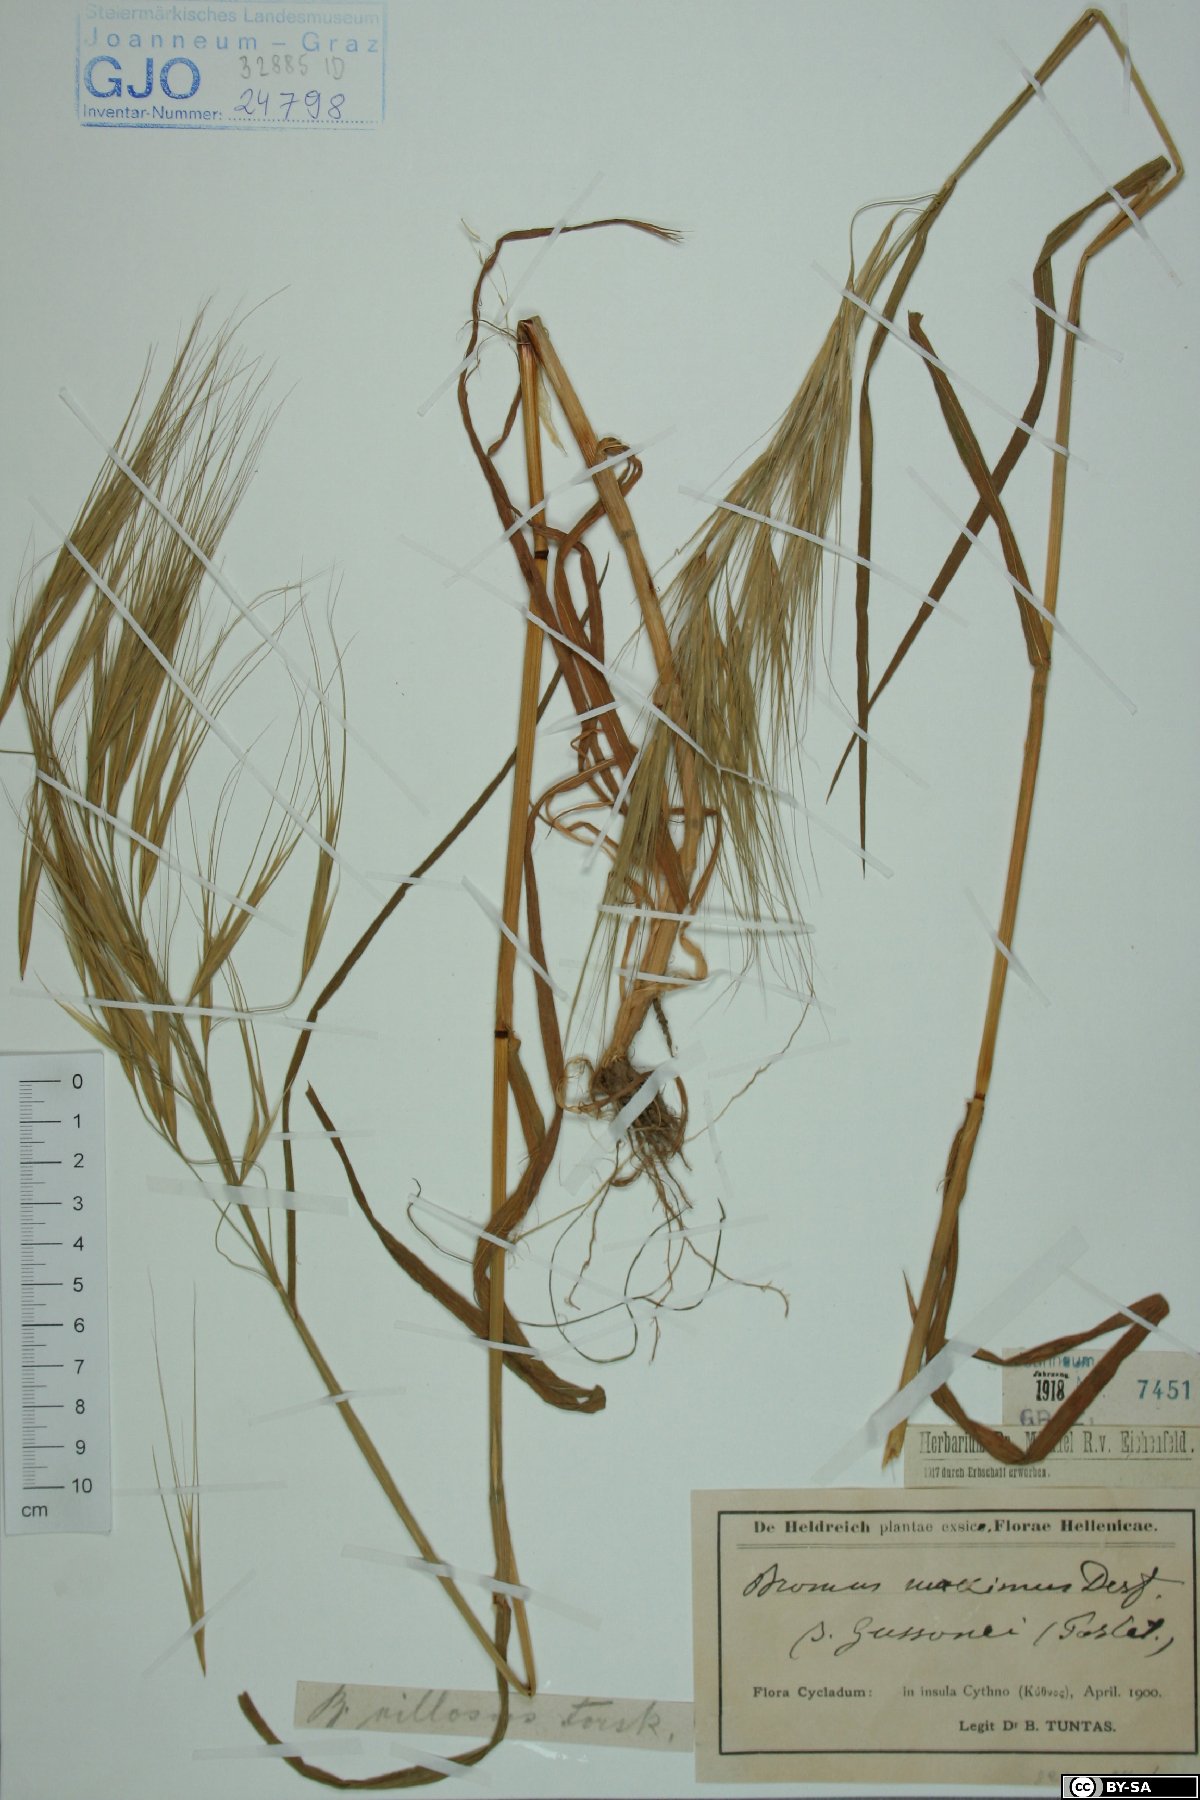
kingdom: Plantae
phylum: Tracheophyta
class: Liliopsida
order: Poales
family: Poaceae
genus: Bromus
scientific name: Bromus diandrus
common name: Ripgut brome
